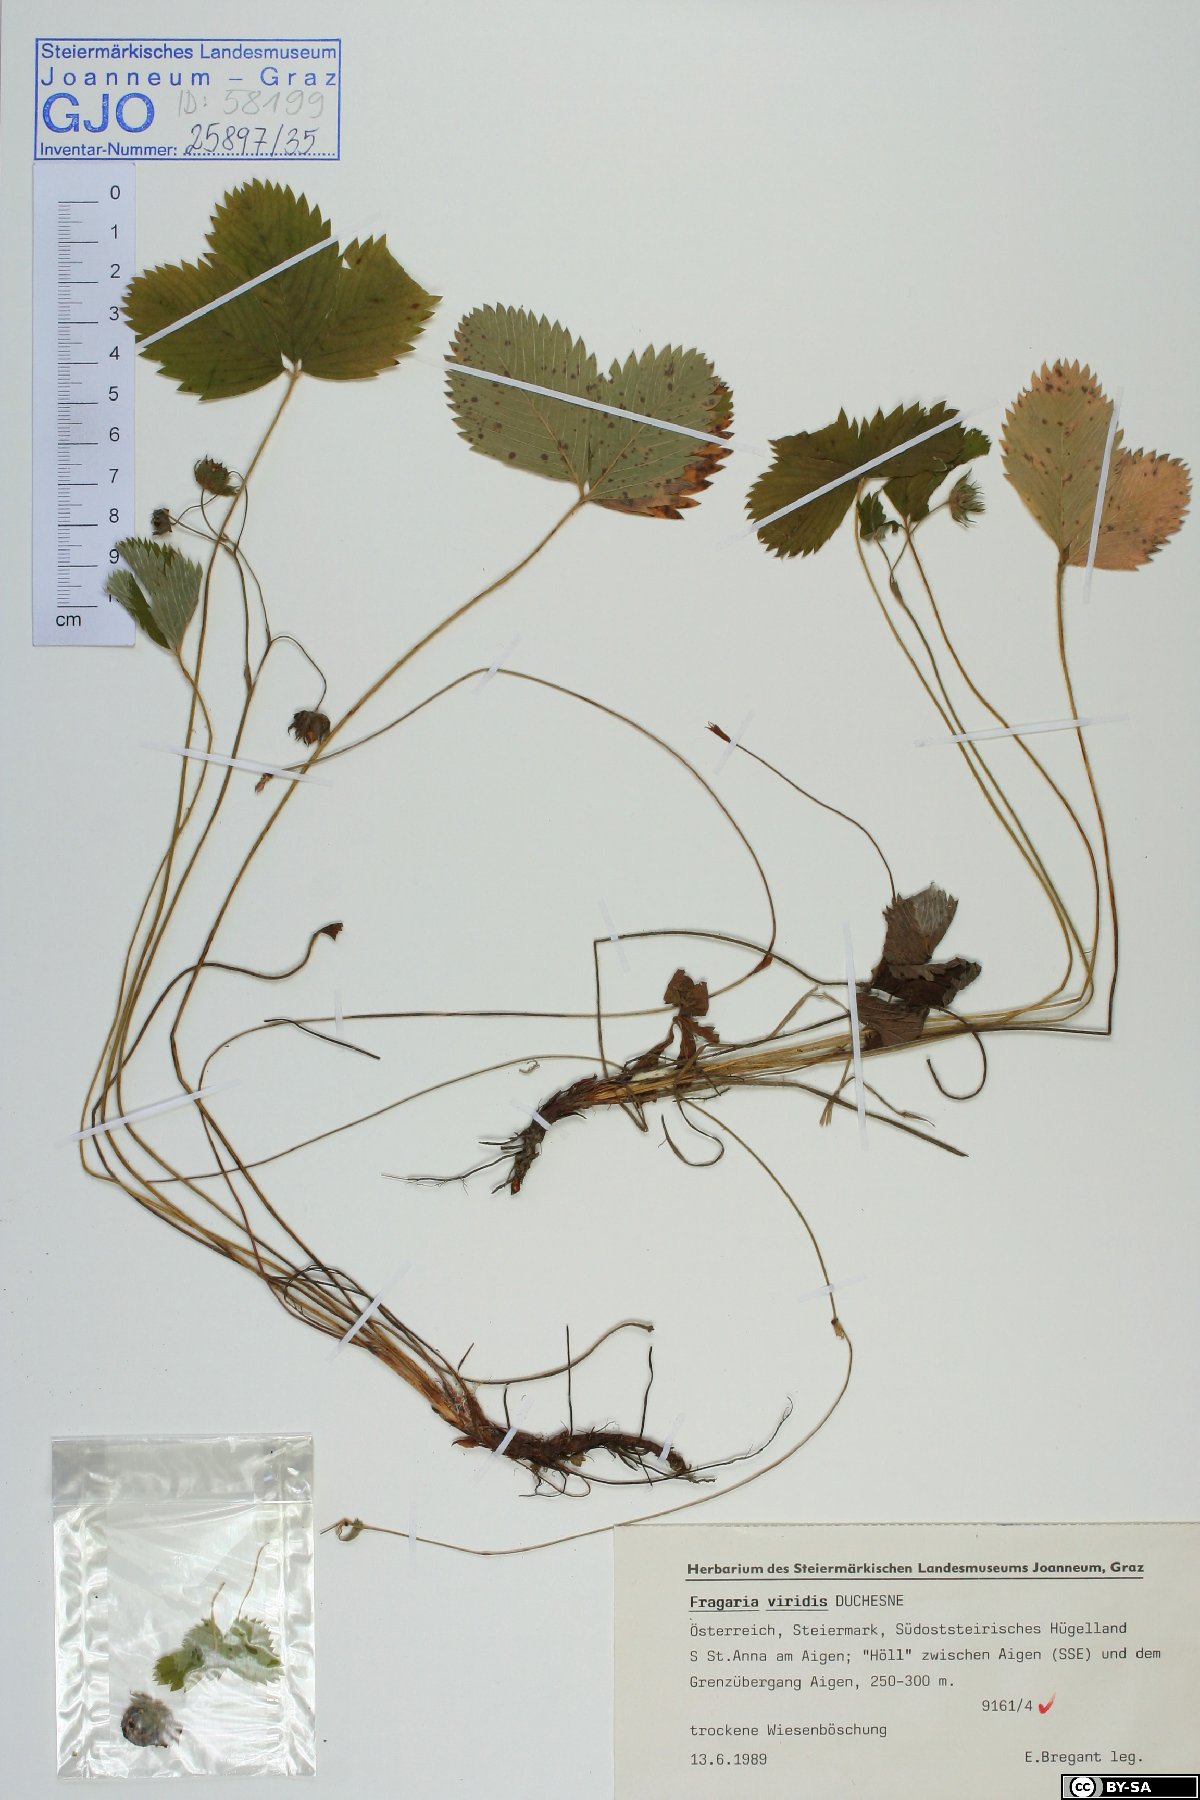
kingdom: Plantae
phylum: Tracheophyta
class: Magnoliopsida
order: Rosales
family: Rosaceae
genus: Fragaria
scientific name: Fragaria viridis
